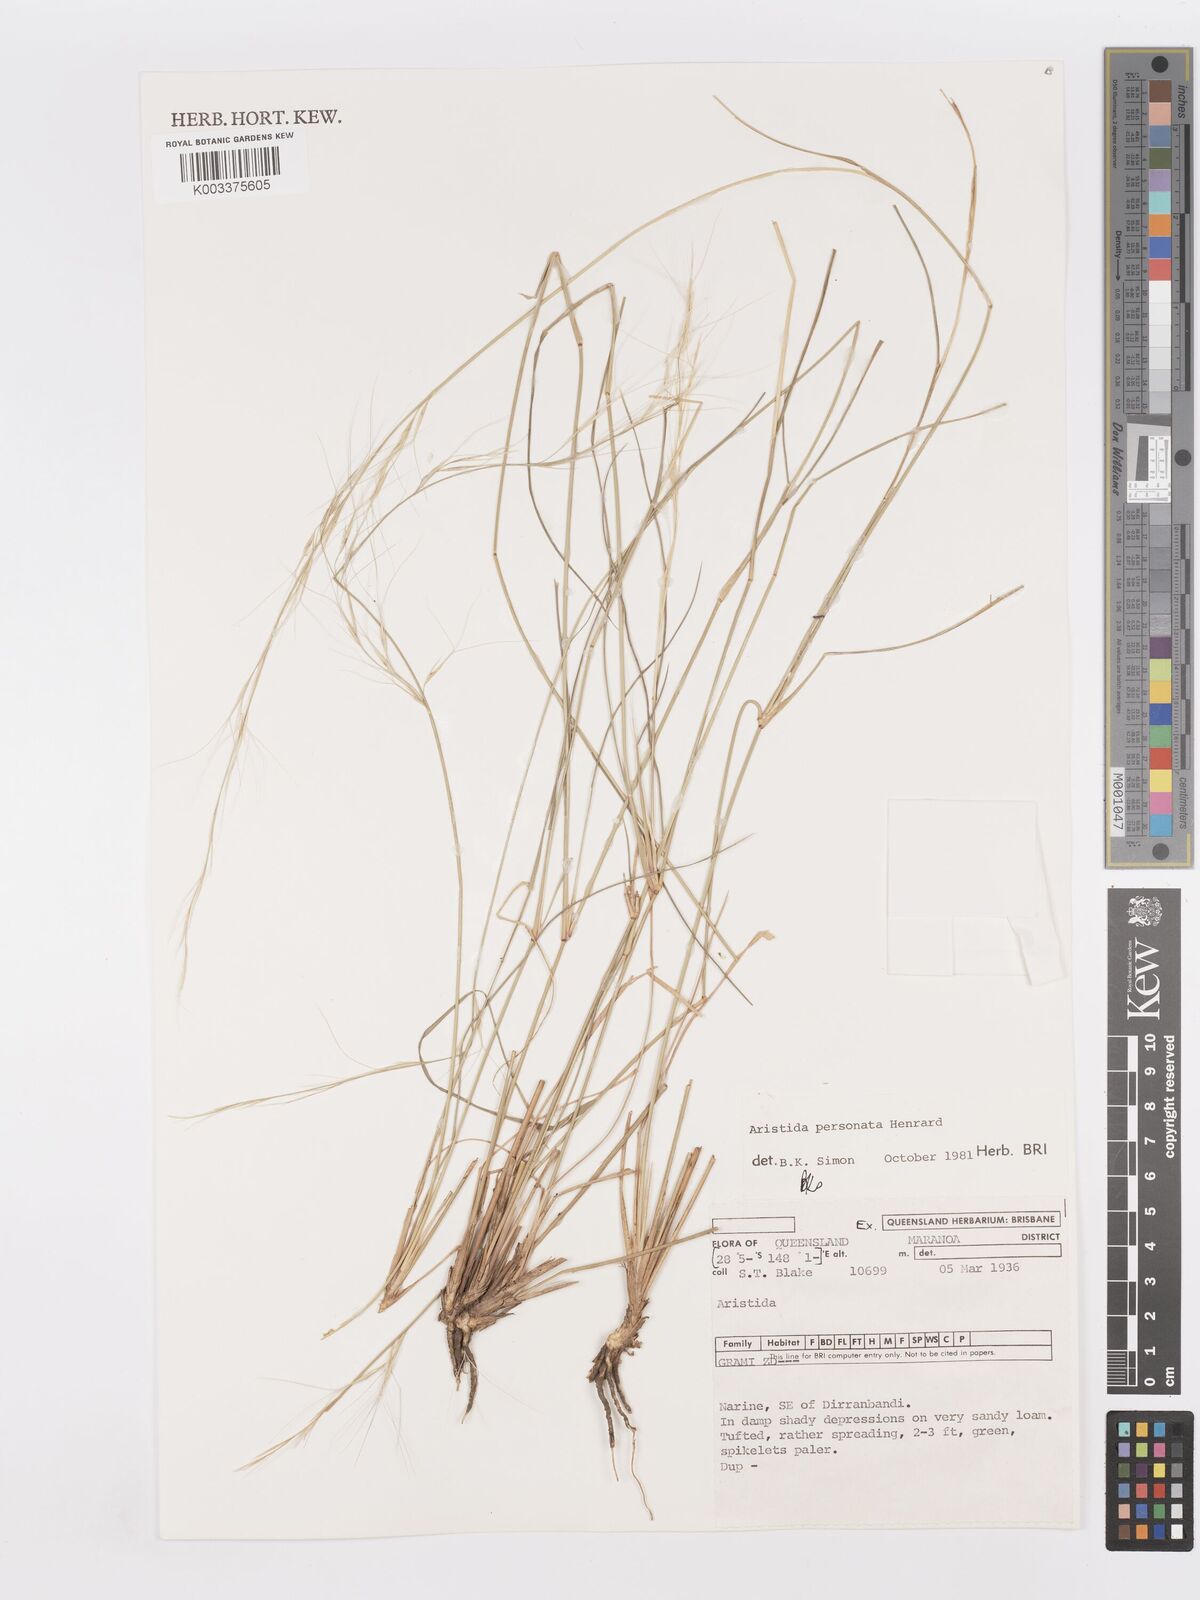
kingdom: Plantae
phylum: Tracheophyta
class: Liliopsida
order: Poales
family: Poaceae
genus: Aristida
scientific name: Aristida personata
